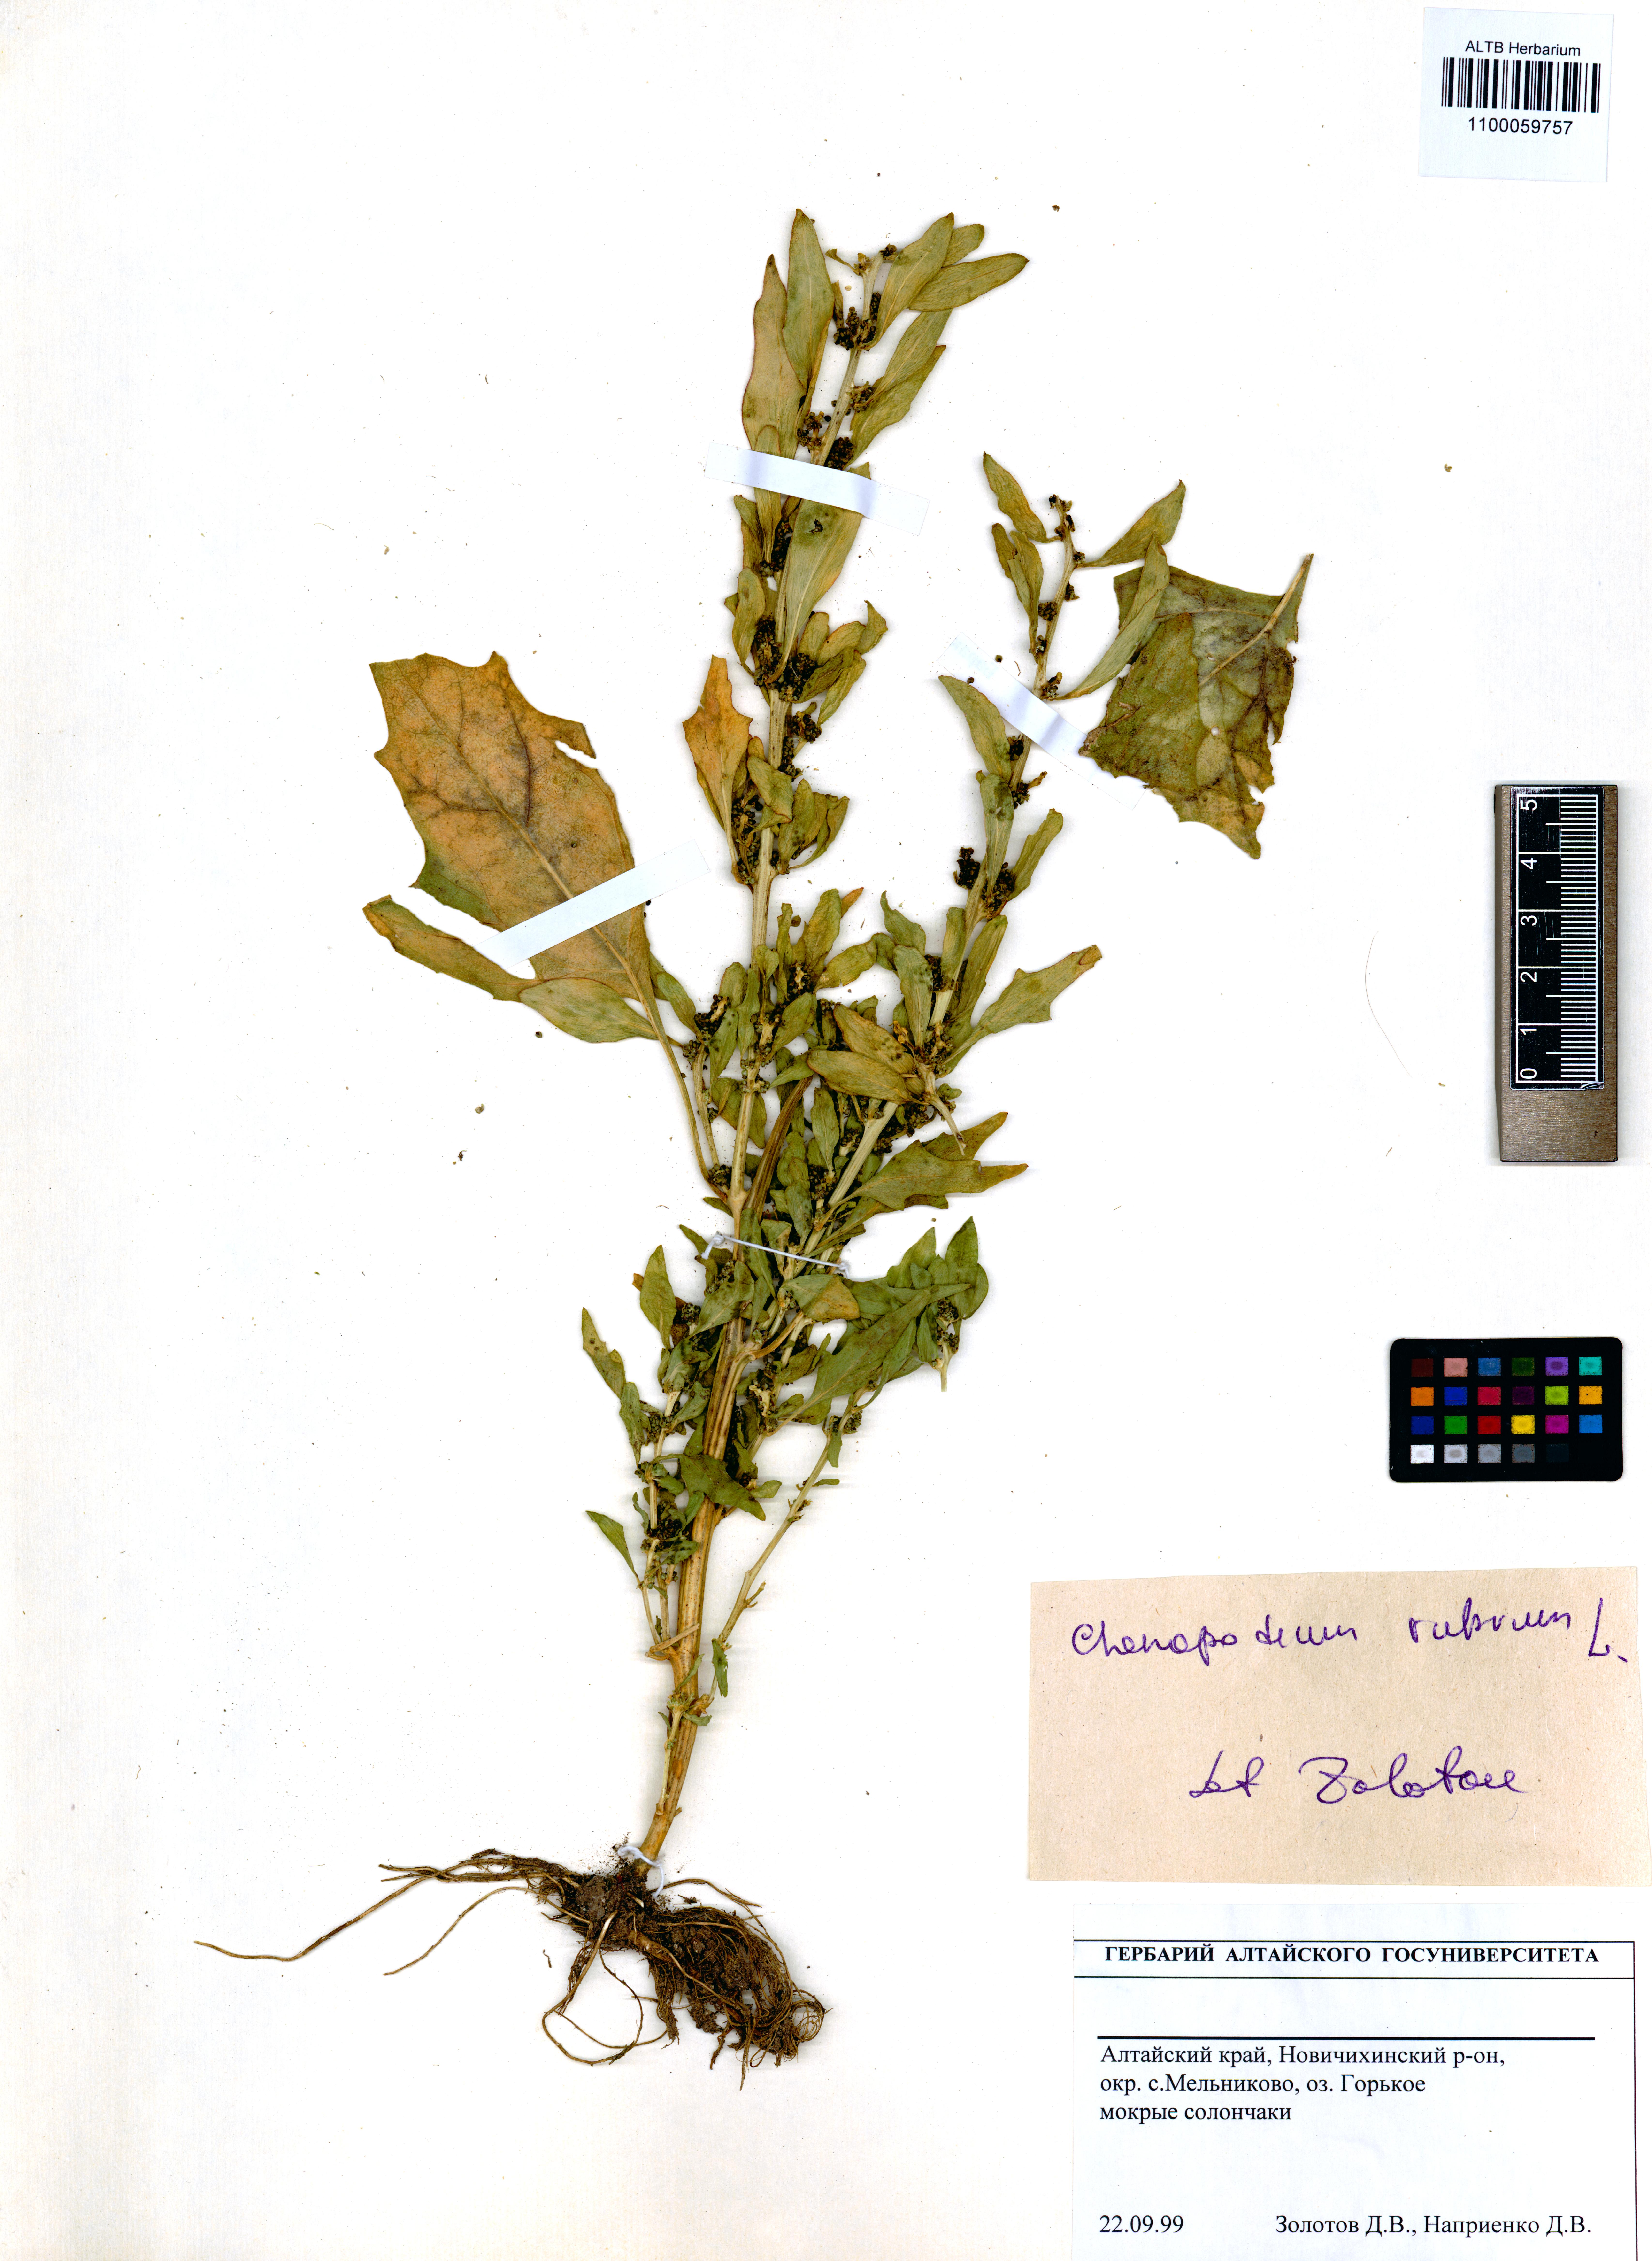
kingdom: Plantae
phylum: Tracheophyta
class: Magnoliopsida
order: Caryophyllales
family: Amaranthaceae
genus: Oxybasis
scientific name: Oxybasis rubra
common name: Red goosefoot
